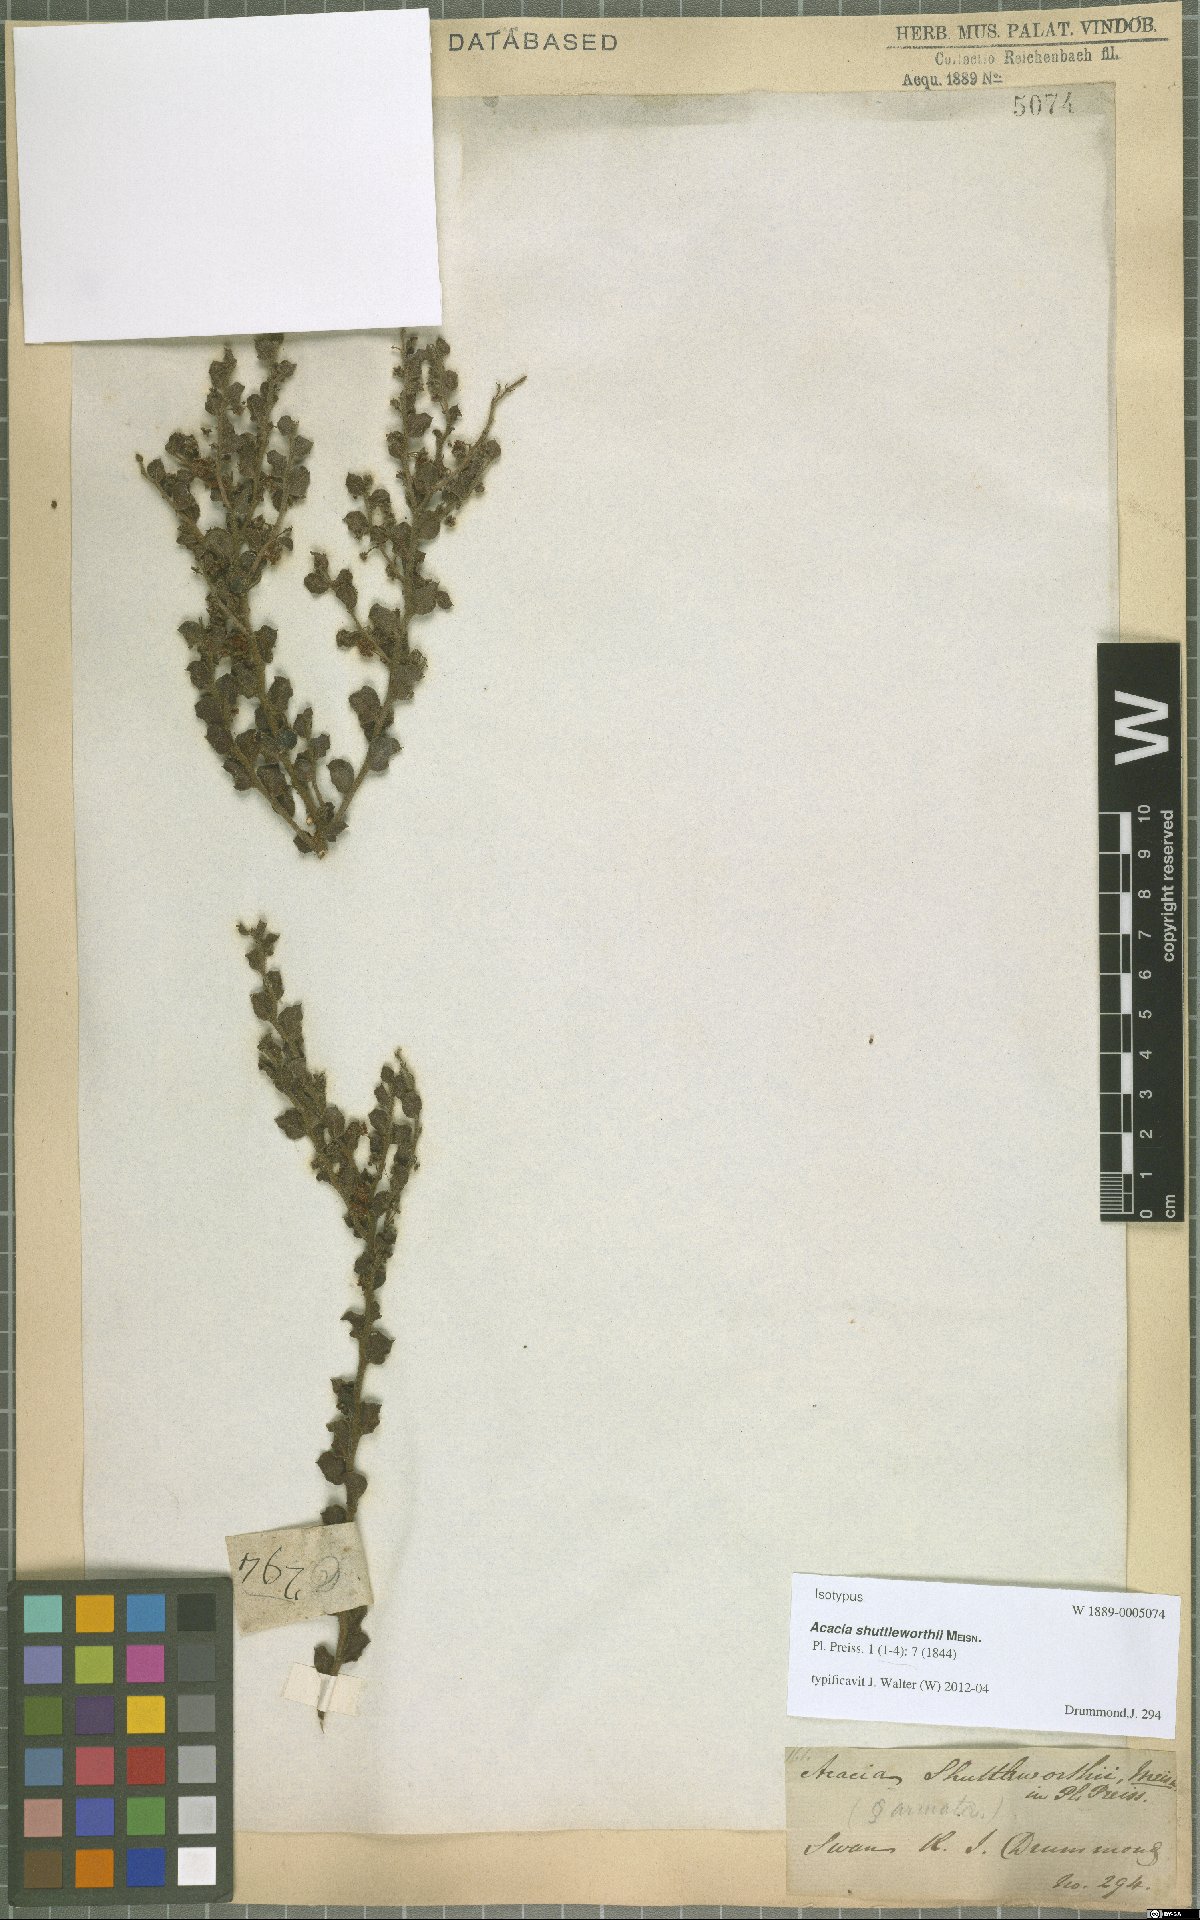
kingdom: Plantae
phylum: Tracheophyta
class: Magnoliopsida
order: Fabales
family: Fabaceae
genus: Acacia
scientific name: Acacia shuttleworthii
